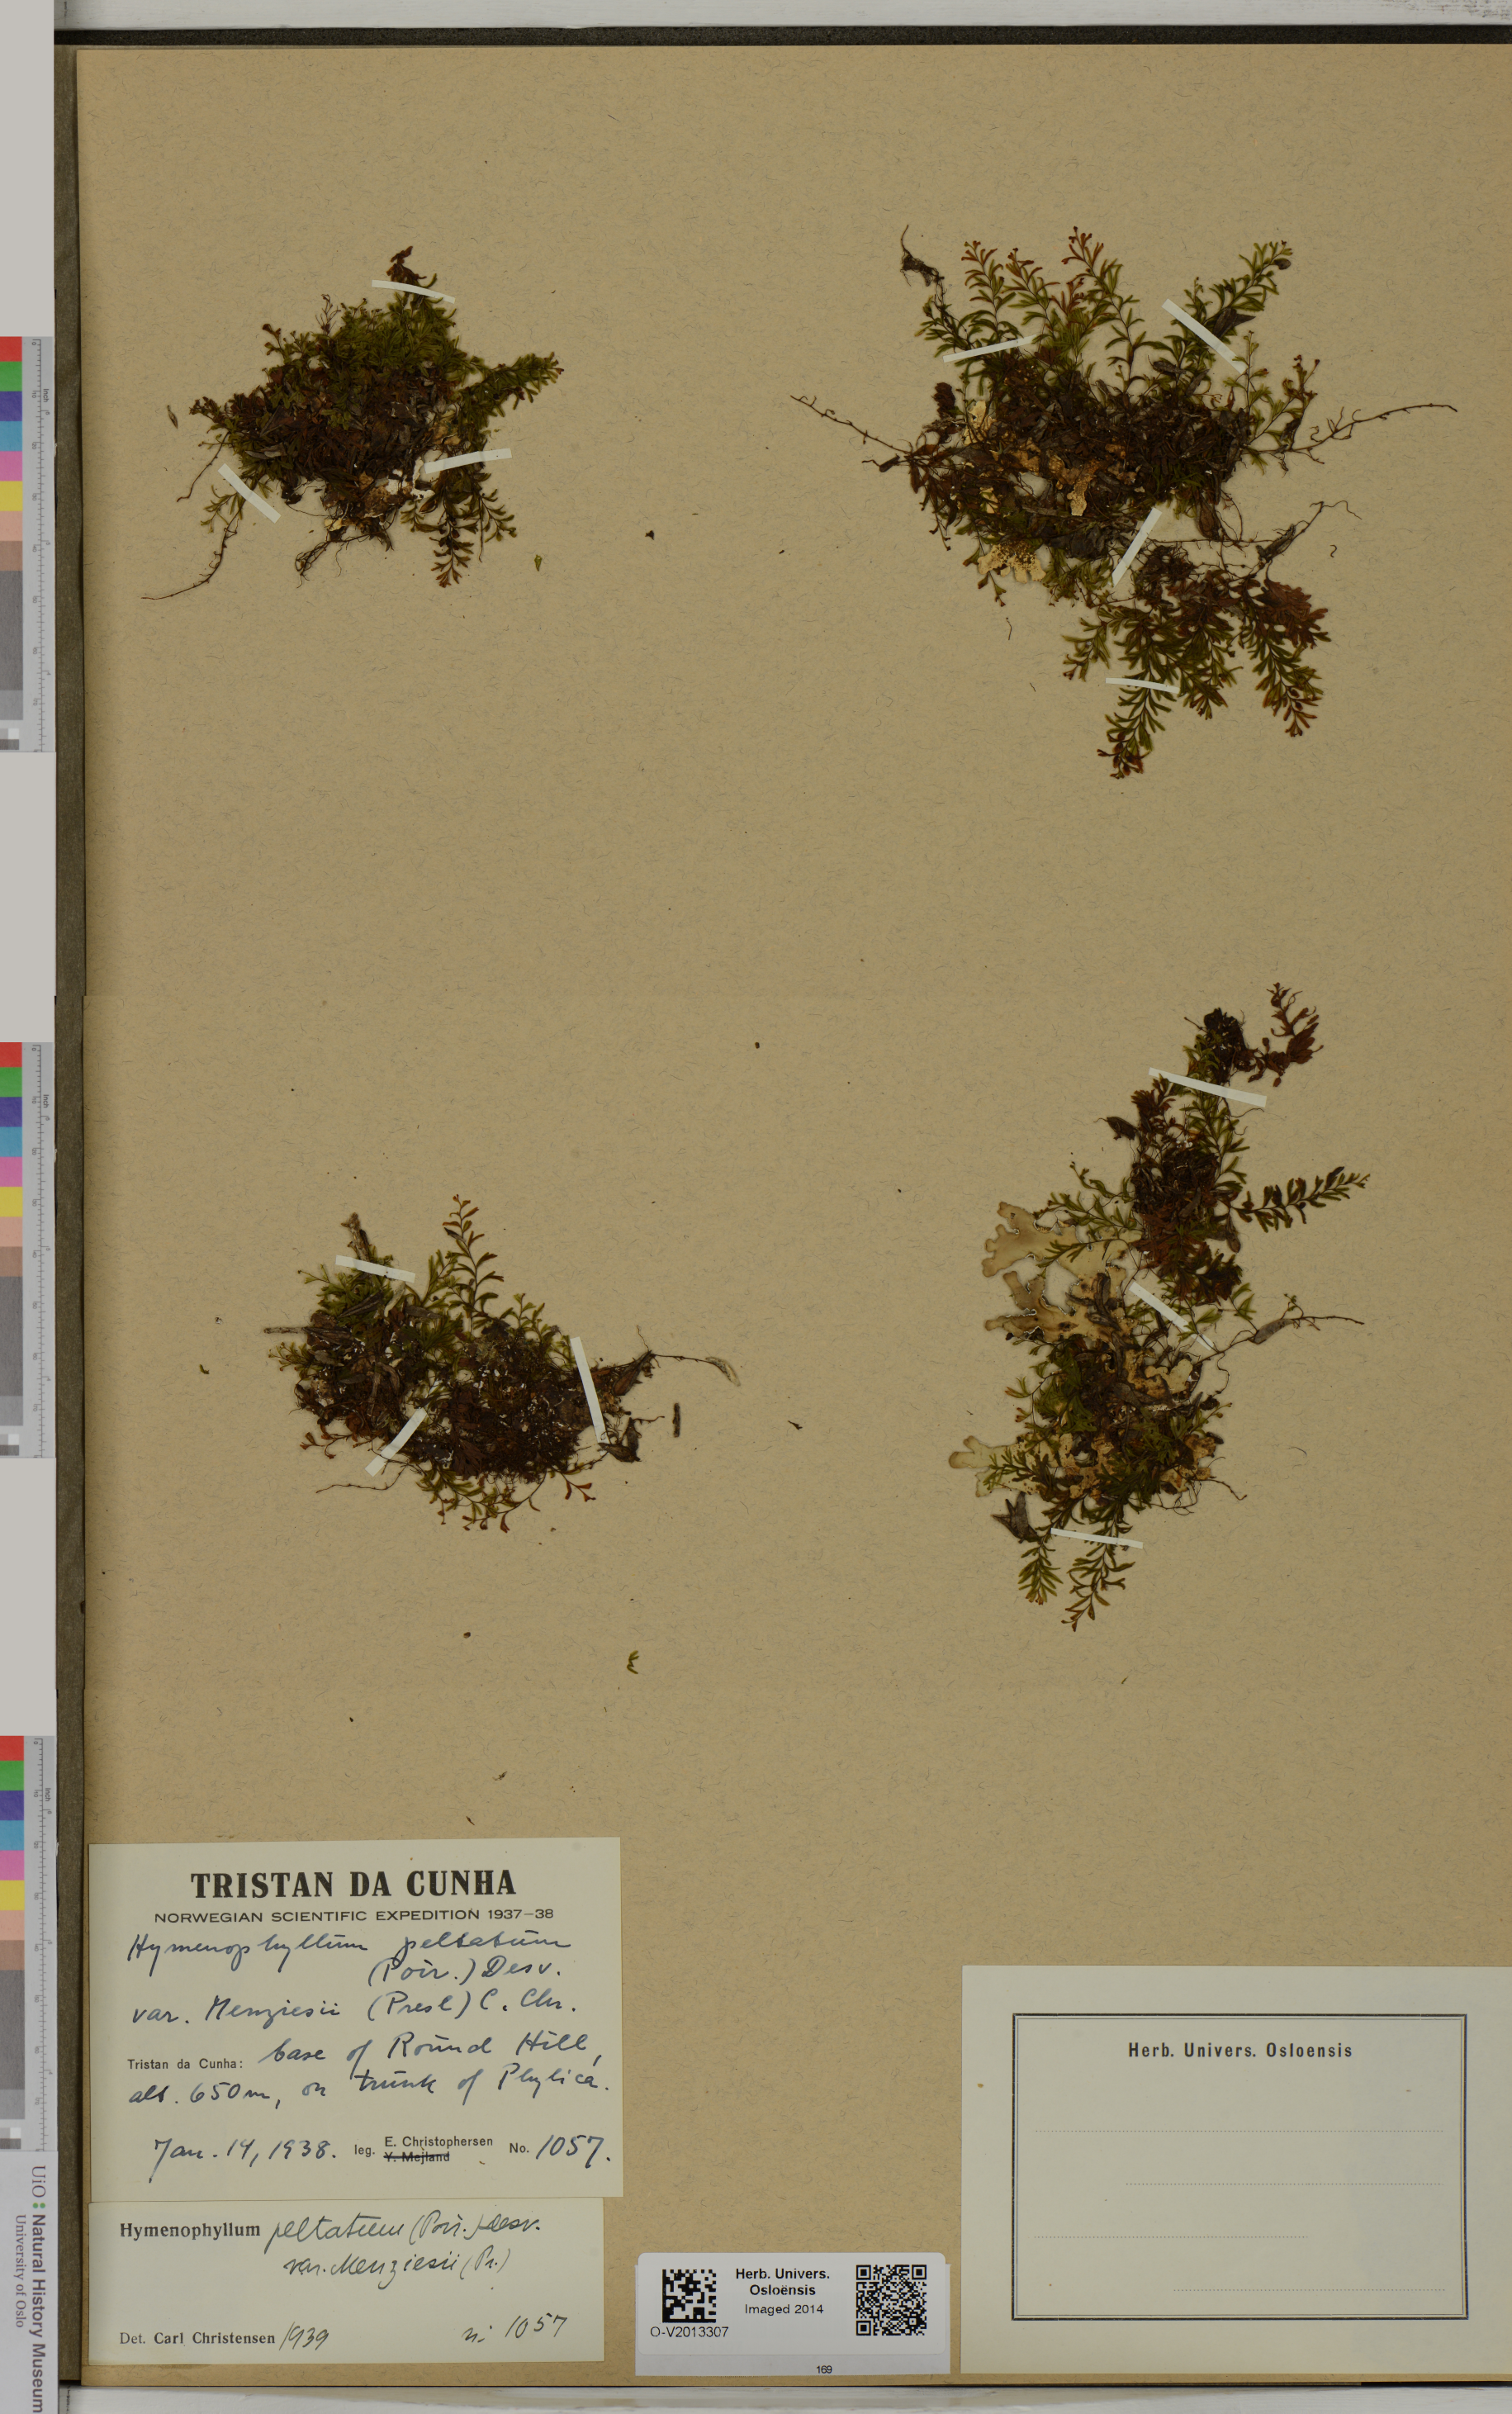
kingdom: Plantae
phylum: Tracheophyta
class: Polypodiopsida
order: Hymenophyllales
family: Hymenophyllaceae
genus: Hymenophyllum
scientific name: Hymenophyllum peltatum
